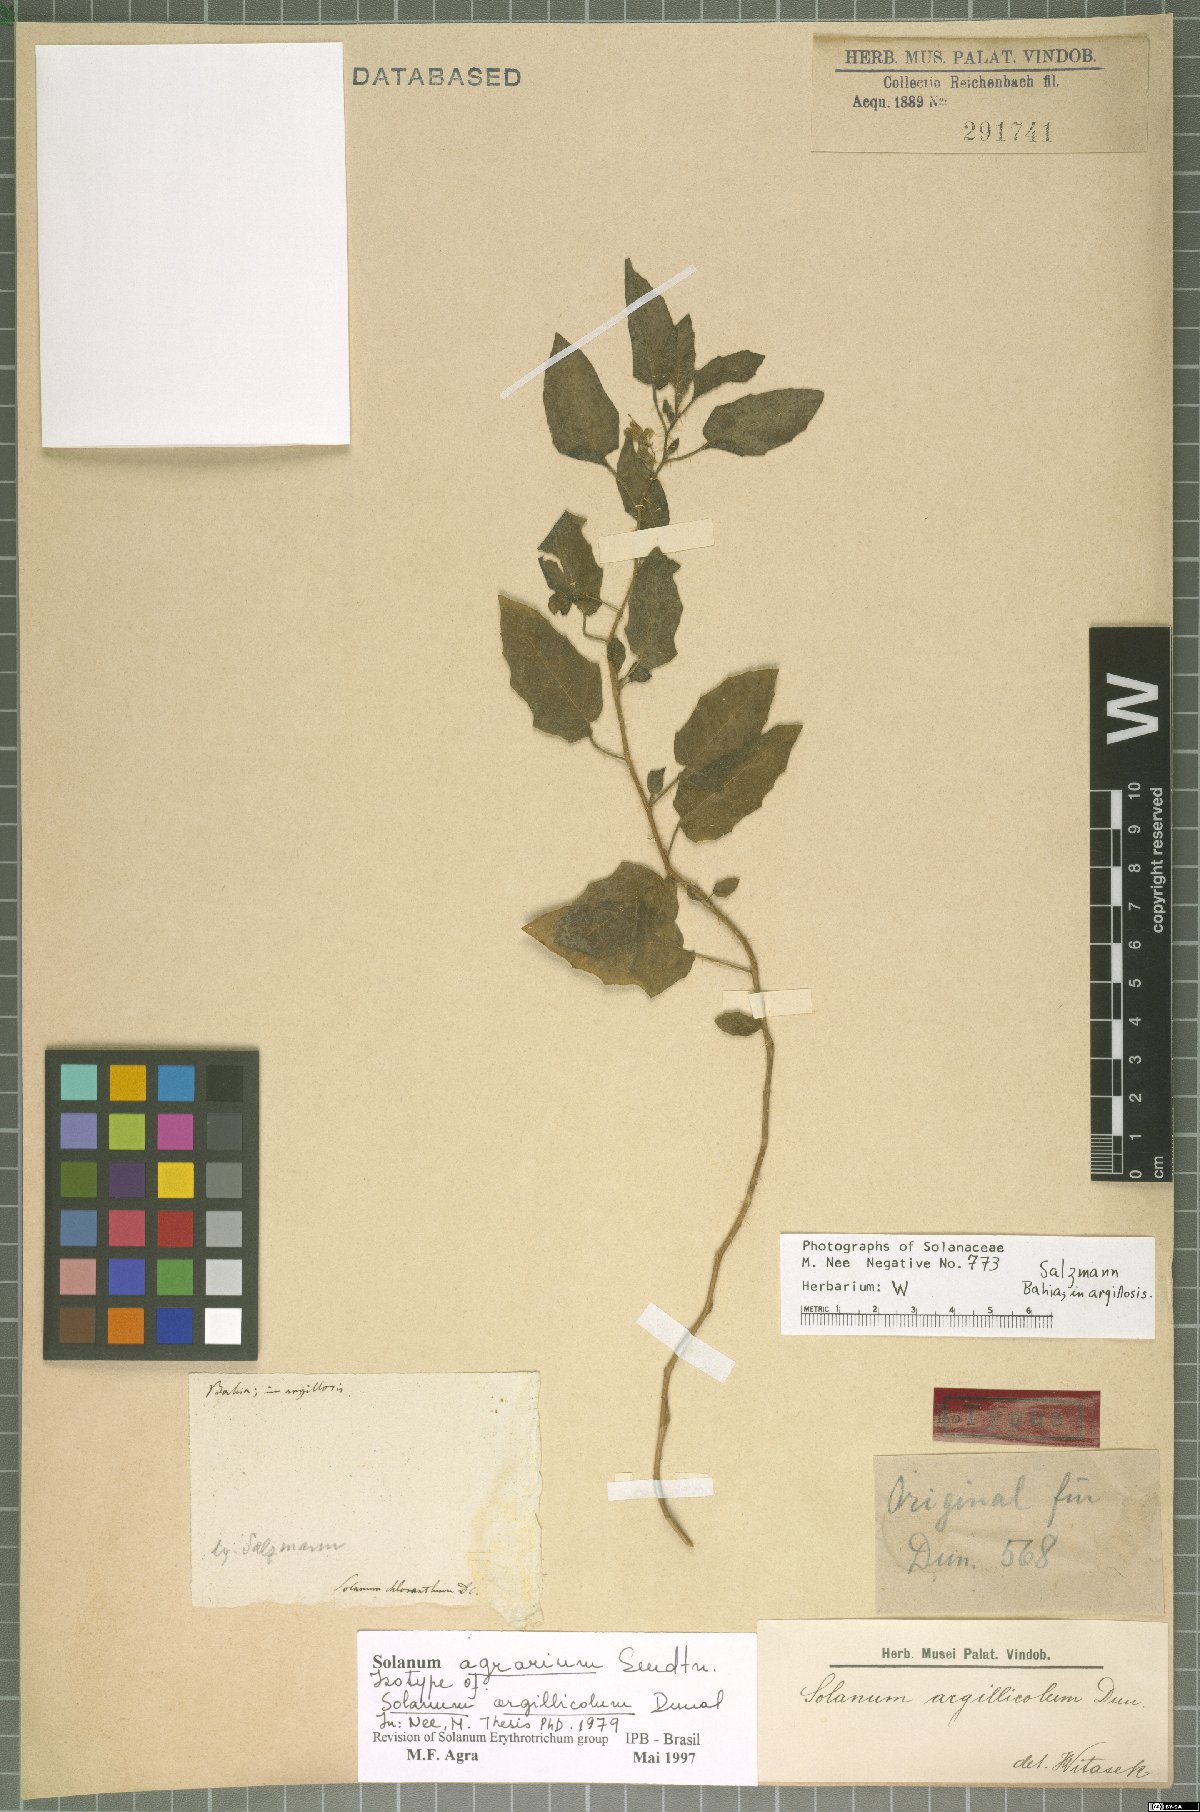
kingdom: Plantae
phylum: Tracheophyta
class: Magnoliopsida
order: Solanales
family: Solanaceae
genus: Solanum
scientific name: Solanum agrarium
